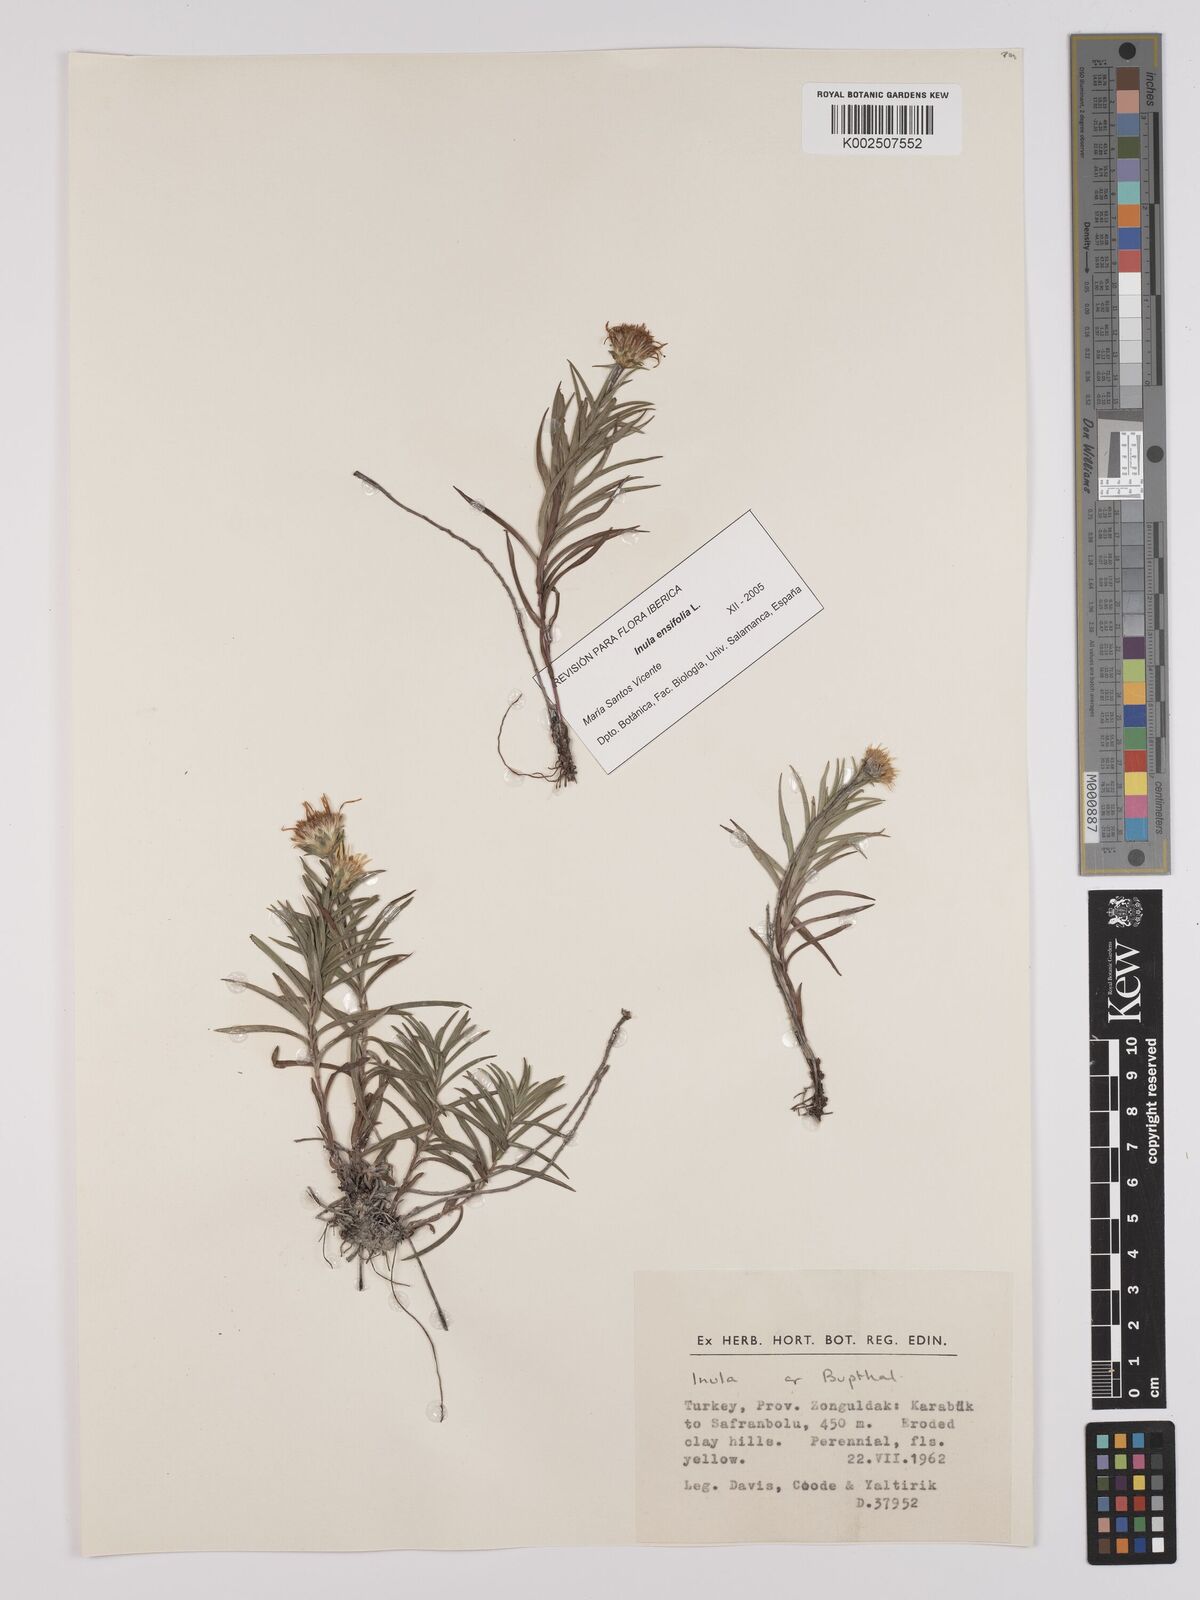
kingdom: Plantae
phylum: Tracheophyta
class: Magnoliopsida
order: Asterales
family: Asteraceae
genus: Inula
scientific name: Inula
